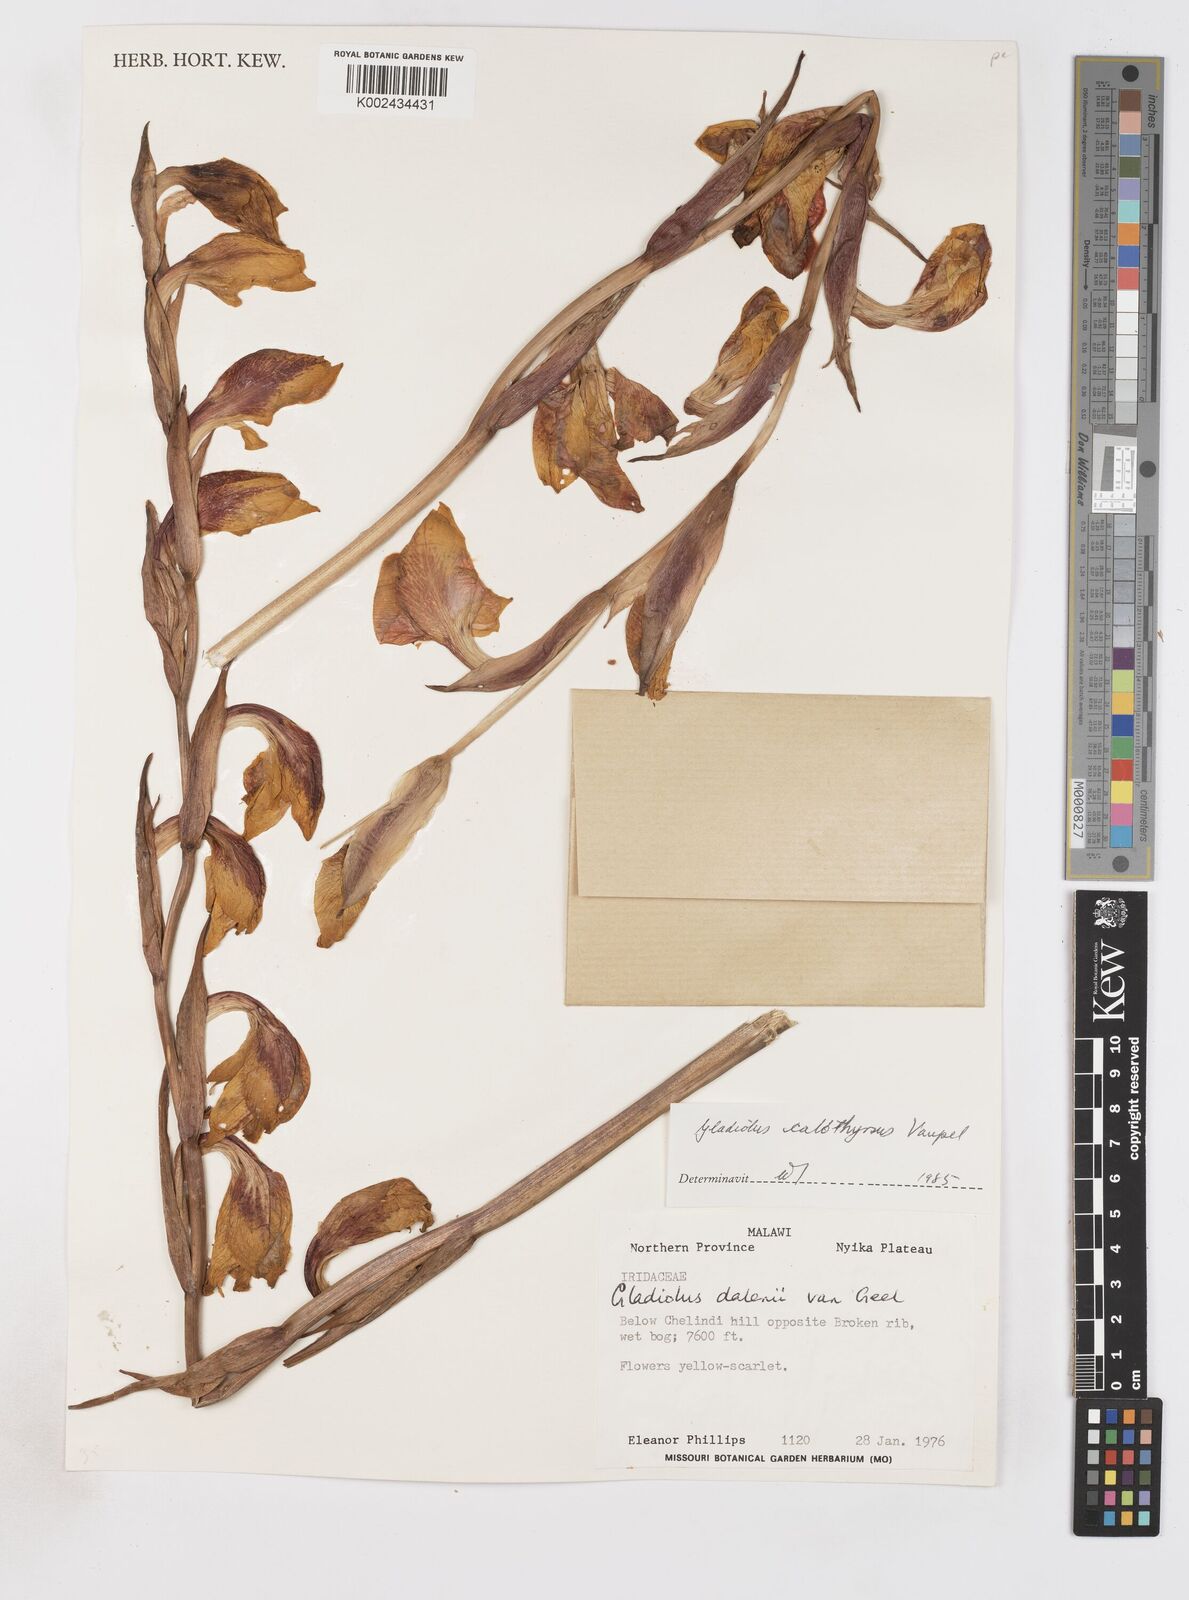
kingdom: Plantae
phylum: Tracheophyta
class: Liliopsida
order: Asparagales
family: Iridaceae
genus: Gladiolus
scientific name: Gladiolus dalenii
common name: Cornflag
